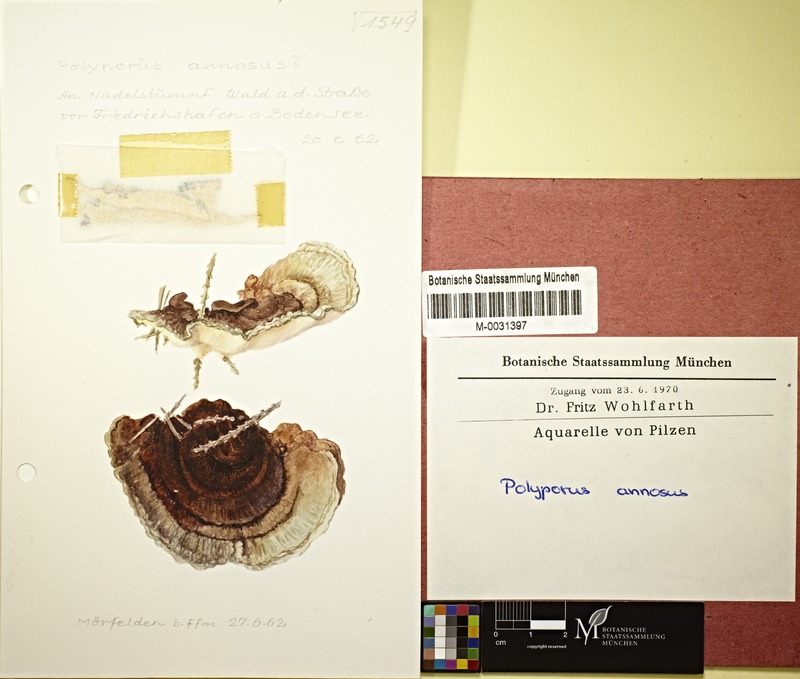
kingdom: Fungi
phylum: Basidiomycota
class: Agaricomycetes
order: Russulales
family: Bondarzewiaceae
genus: Heterobasidion
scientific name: Heterobasidion annosum
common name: Root rot
